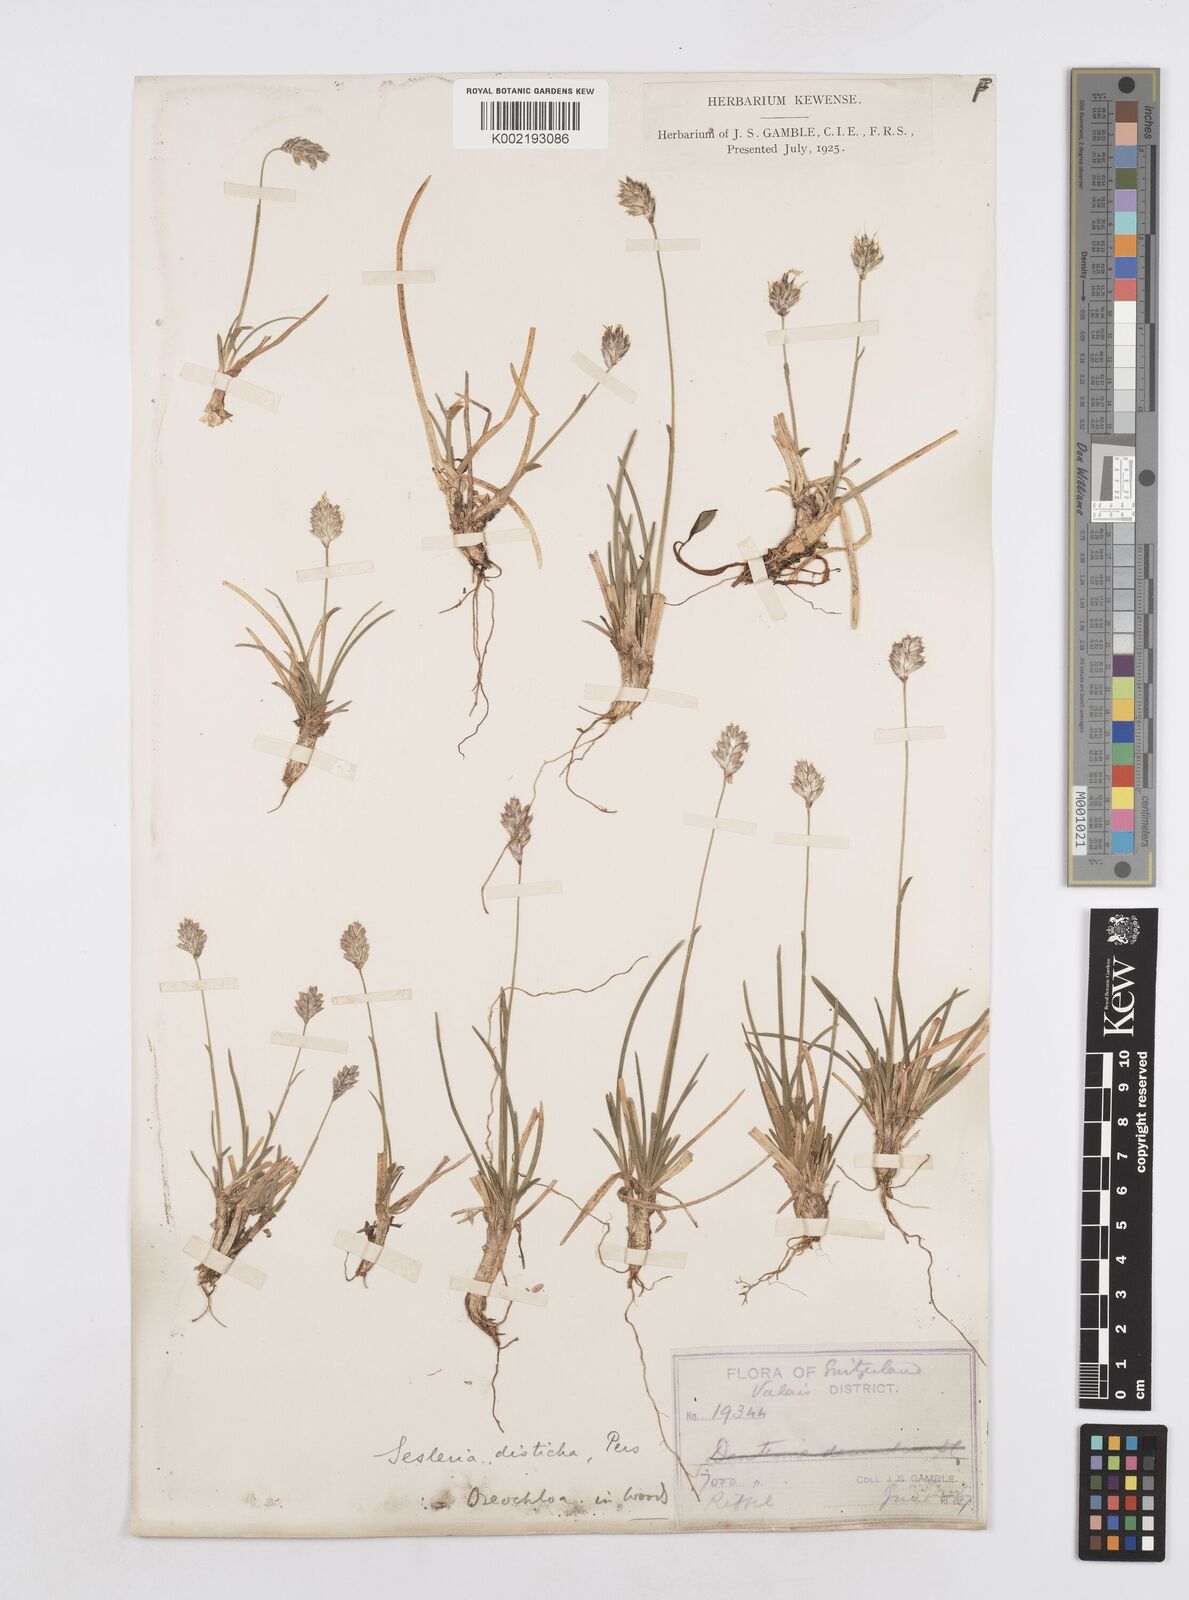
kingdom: Plantae
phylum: Tracheophyta
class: Liliopsida
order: Poales
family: Poaceae
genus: Sesleria
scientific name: Sesleria
